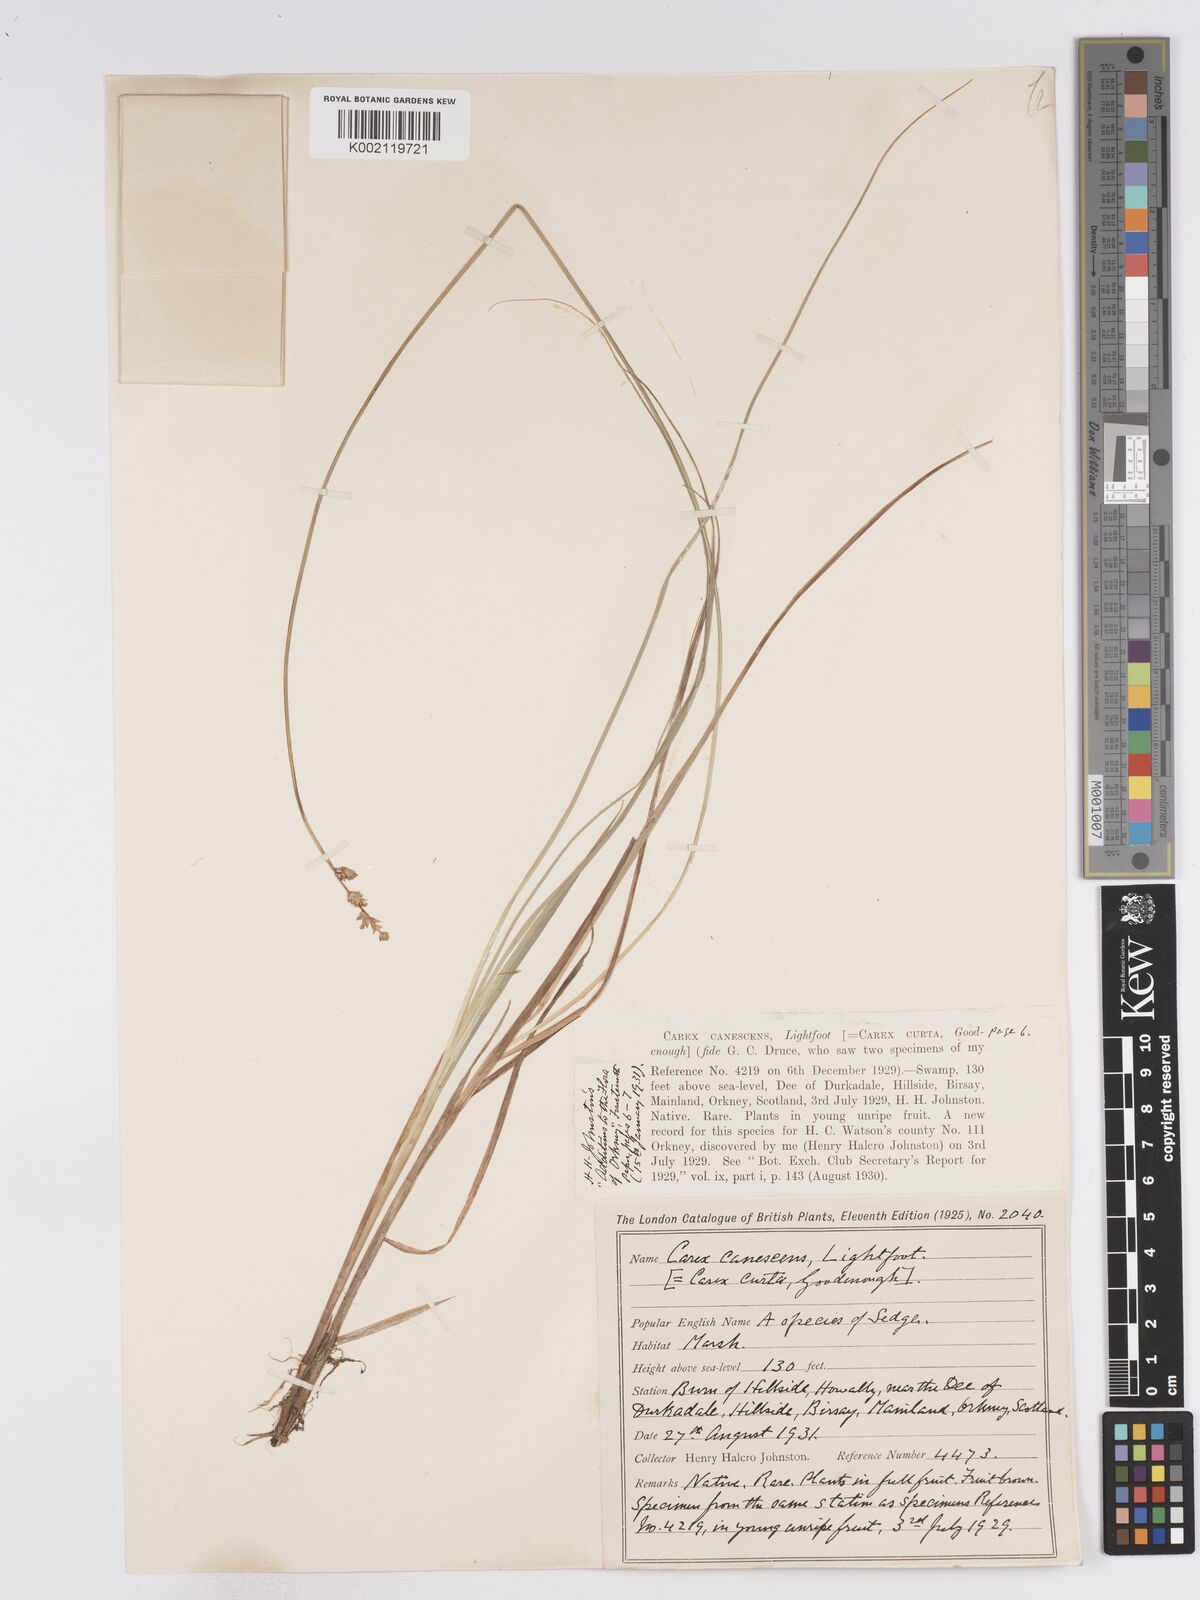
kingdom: Plantae
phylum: Tracheophyta
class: Liliopsida
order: Poales
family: Cyperaceae
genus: Carex
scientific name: Carex curta
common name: White sedge
